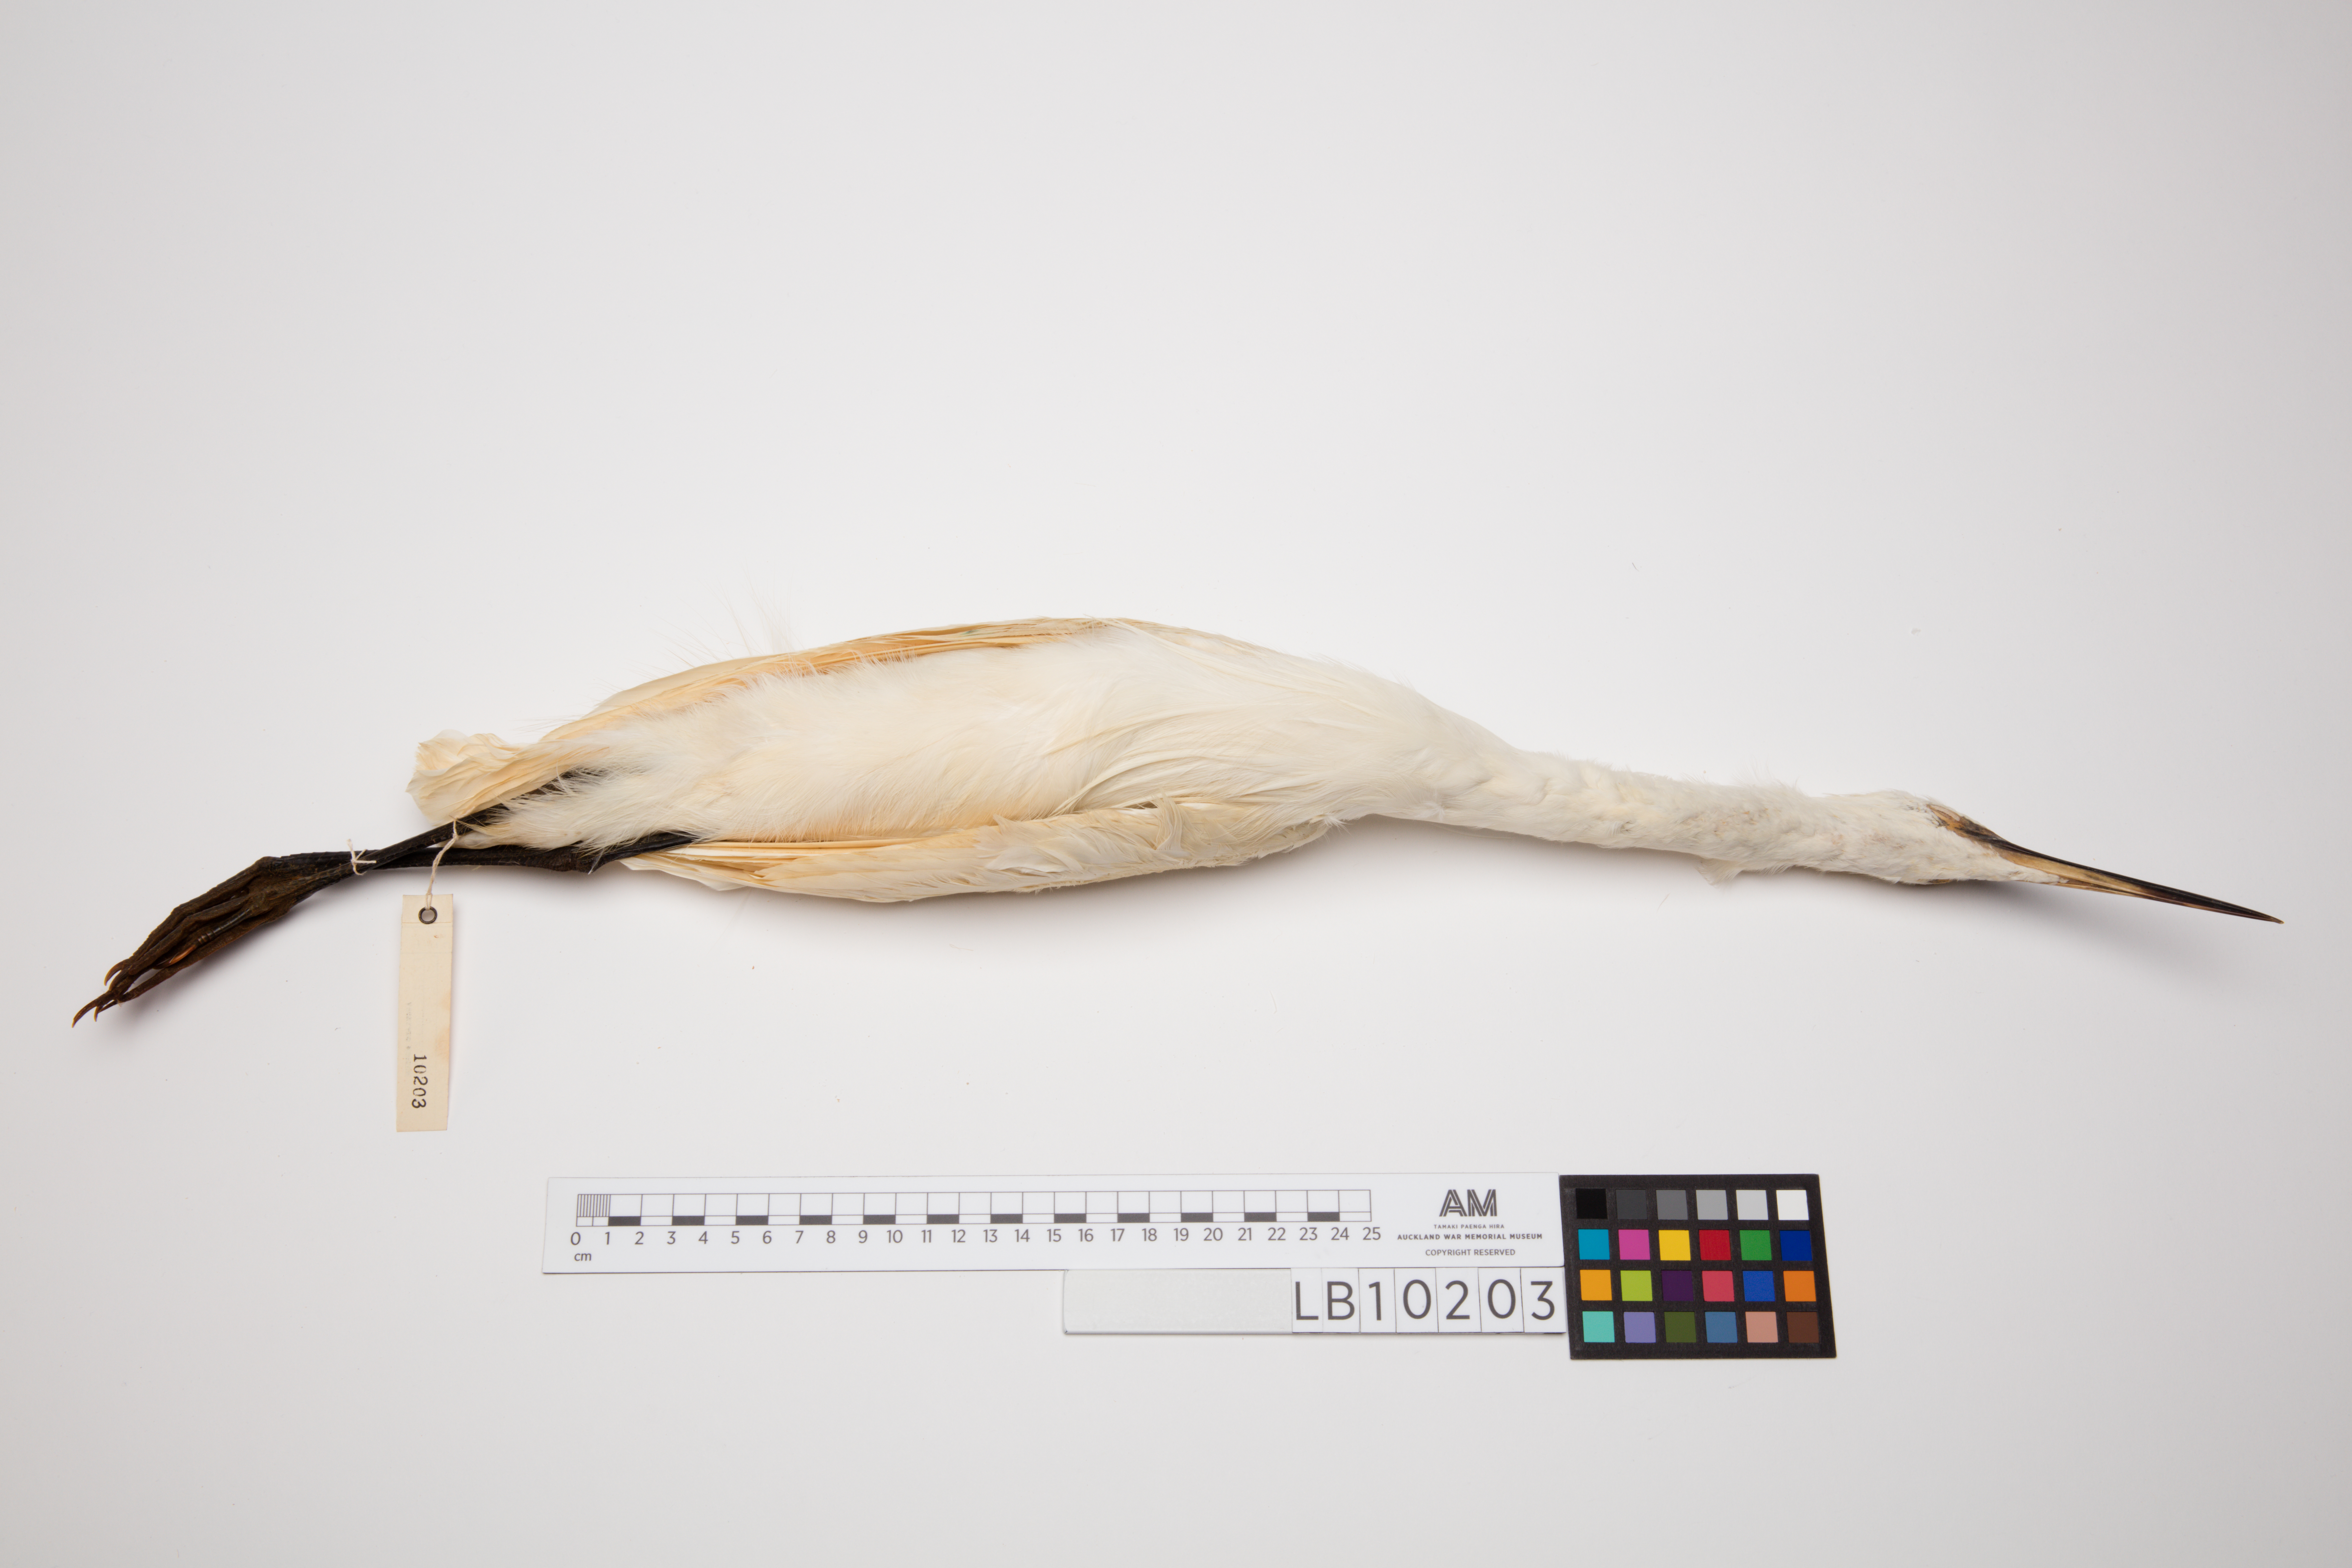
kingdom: Animalia
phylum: Chordata
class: Aves
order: Pelecaniformes
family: Ardeidae
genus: Egretta
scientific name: Egretta garzetta
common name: Little egret
